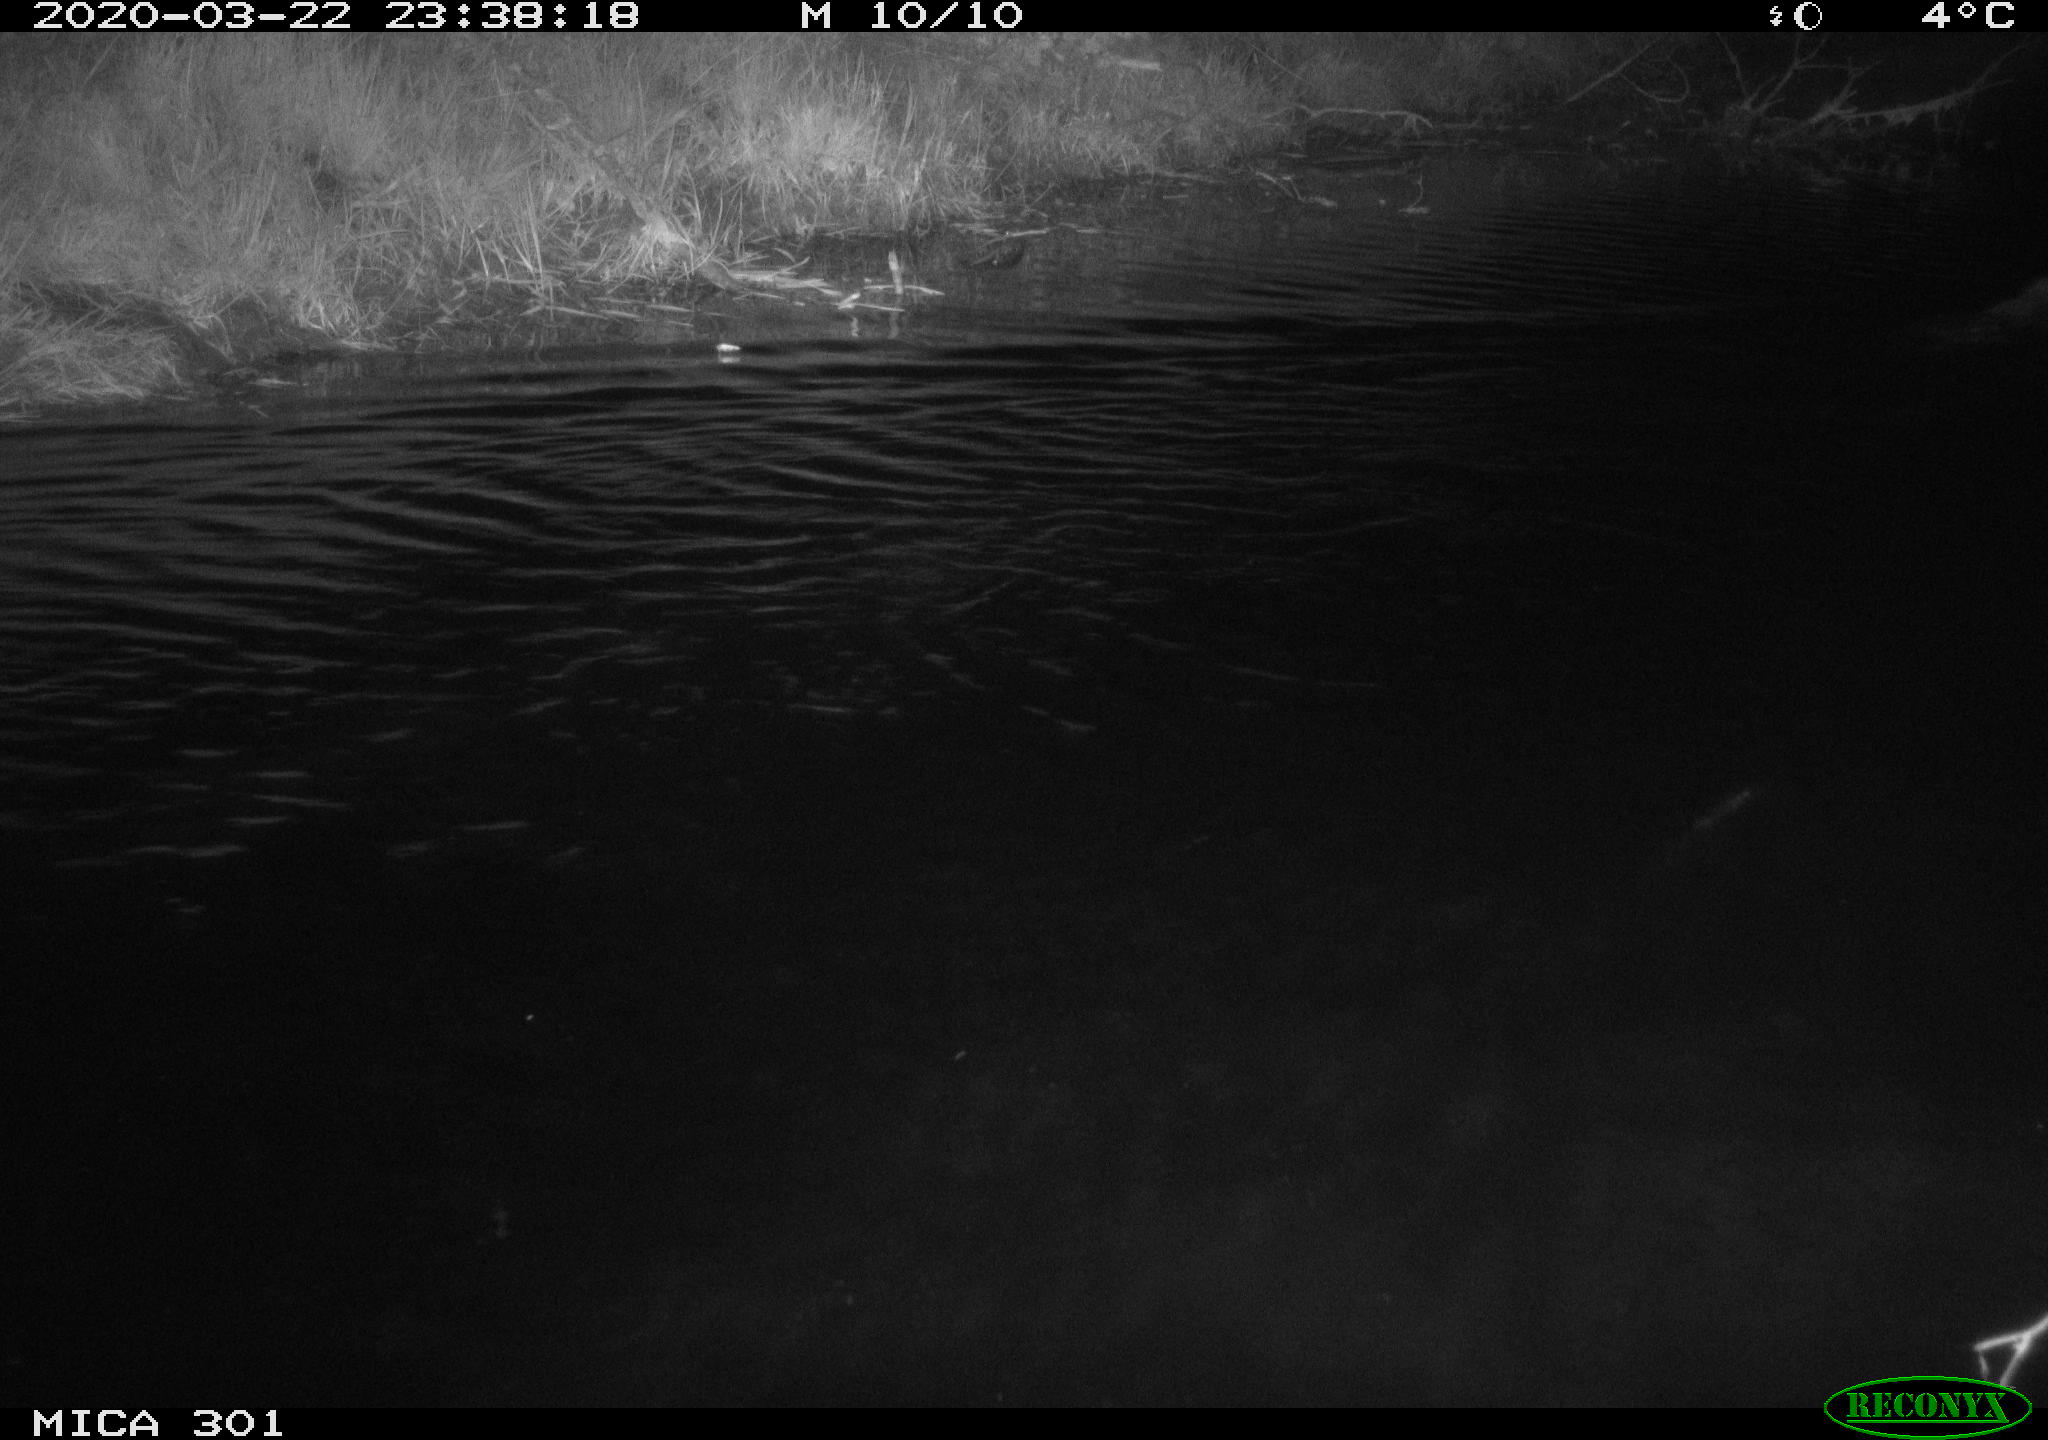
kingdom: Animalia
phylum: Chordata
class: Mammalia
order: Rodentia
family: Castoridae
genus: Castor
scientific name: Castor fiber
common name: Eurasian beaver
